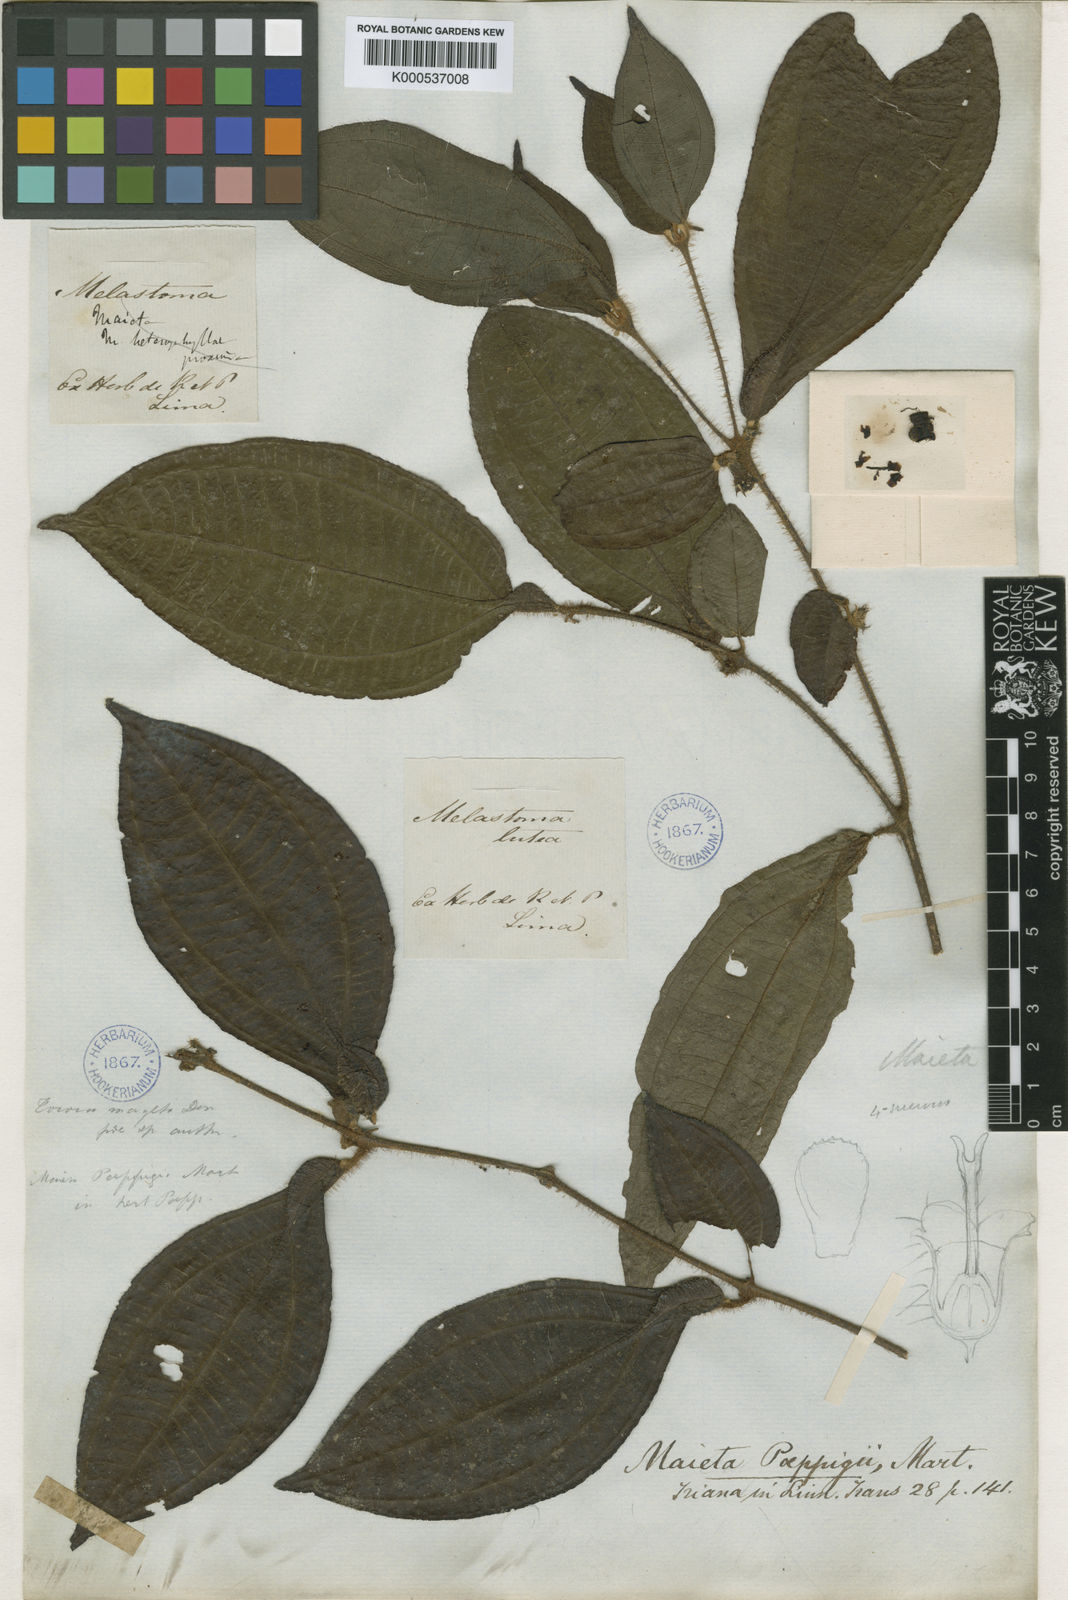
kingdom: Plantae
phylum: Tracheophyta
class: Magnoliopsida
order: Myrtales
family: Melastomataceae
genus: Miconia
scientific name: Miconia alternidomatia
